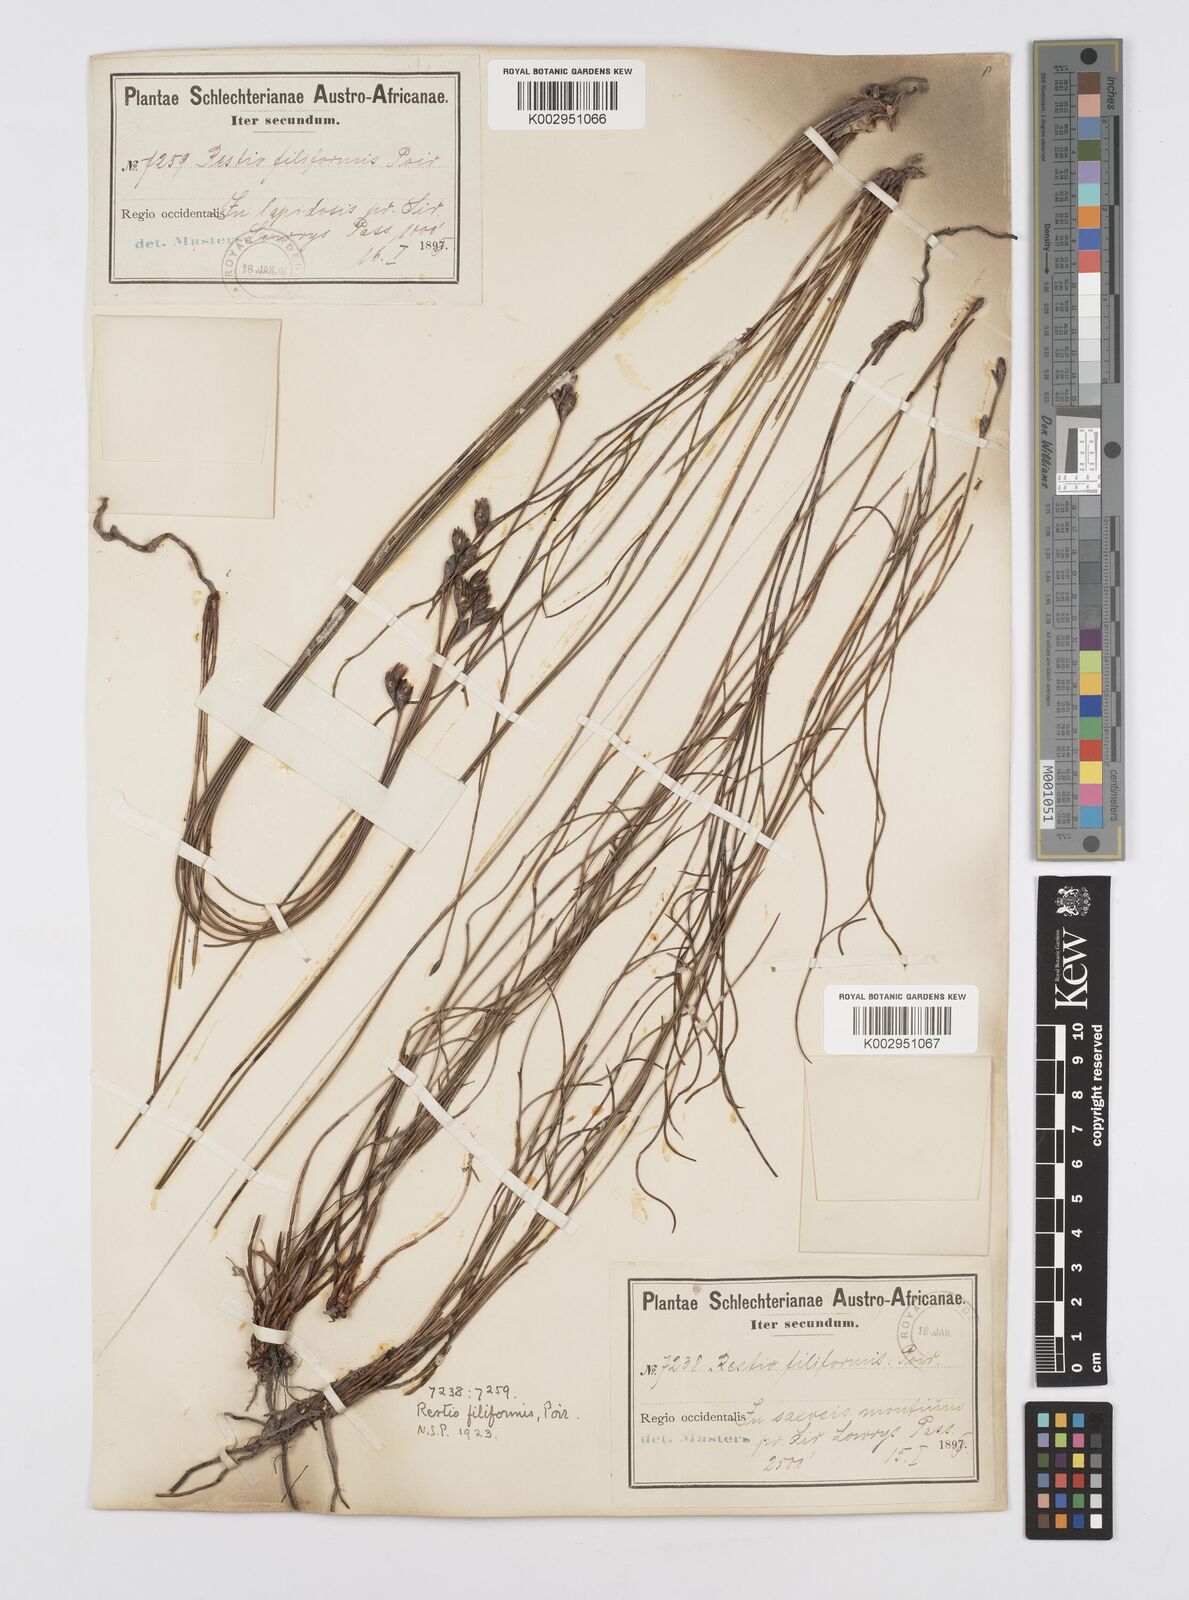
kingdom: Plantae
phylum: Tracheophyta
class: Liliopsida
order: Poales
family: Restionaceae
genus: Restio
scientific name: Restio filiformis
